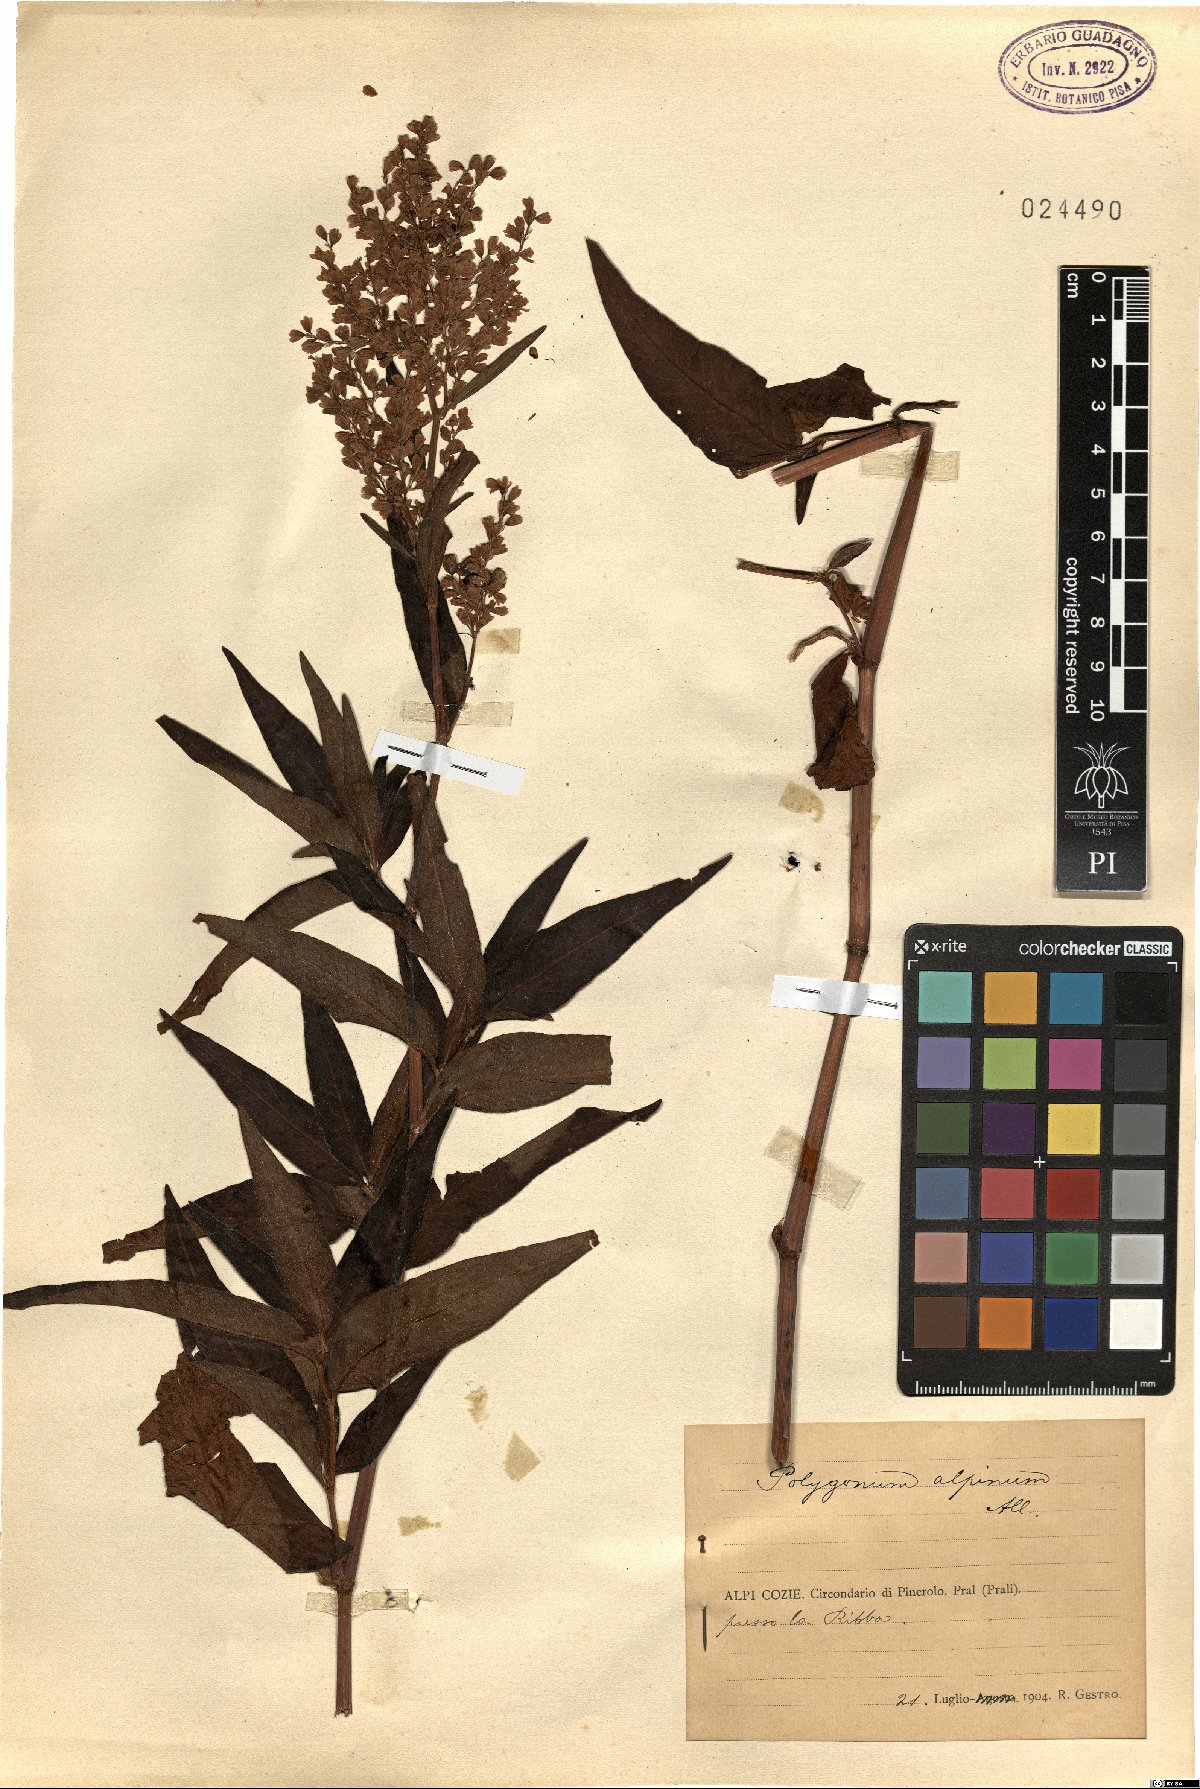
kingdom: Plantae
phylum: Tracheophyta
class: Magnoliopsida
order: Caryophyllales
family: Polygonaceae
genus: Koenigia
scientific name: Koenigia alpina
